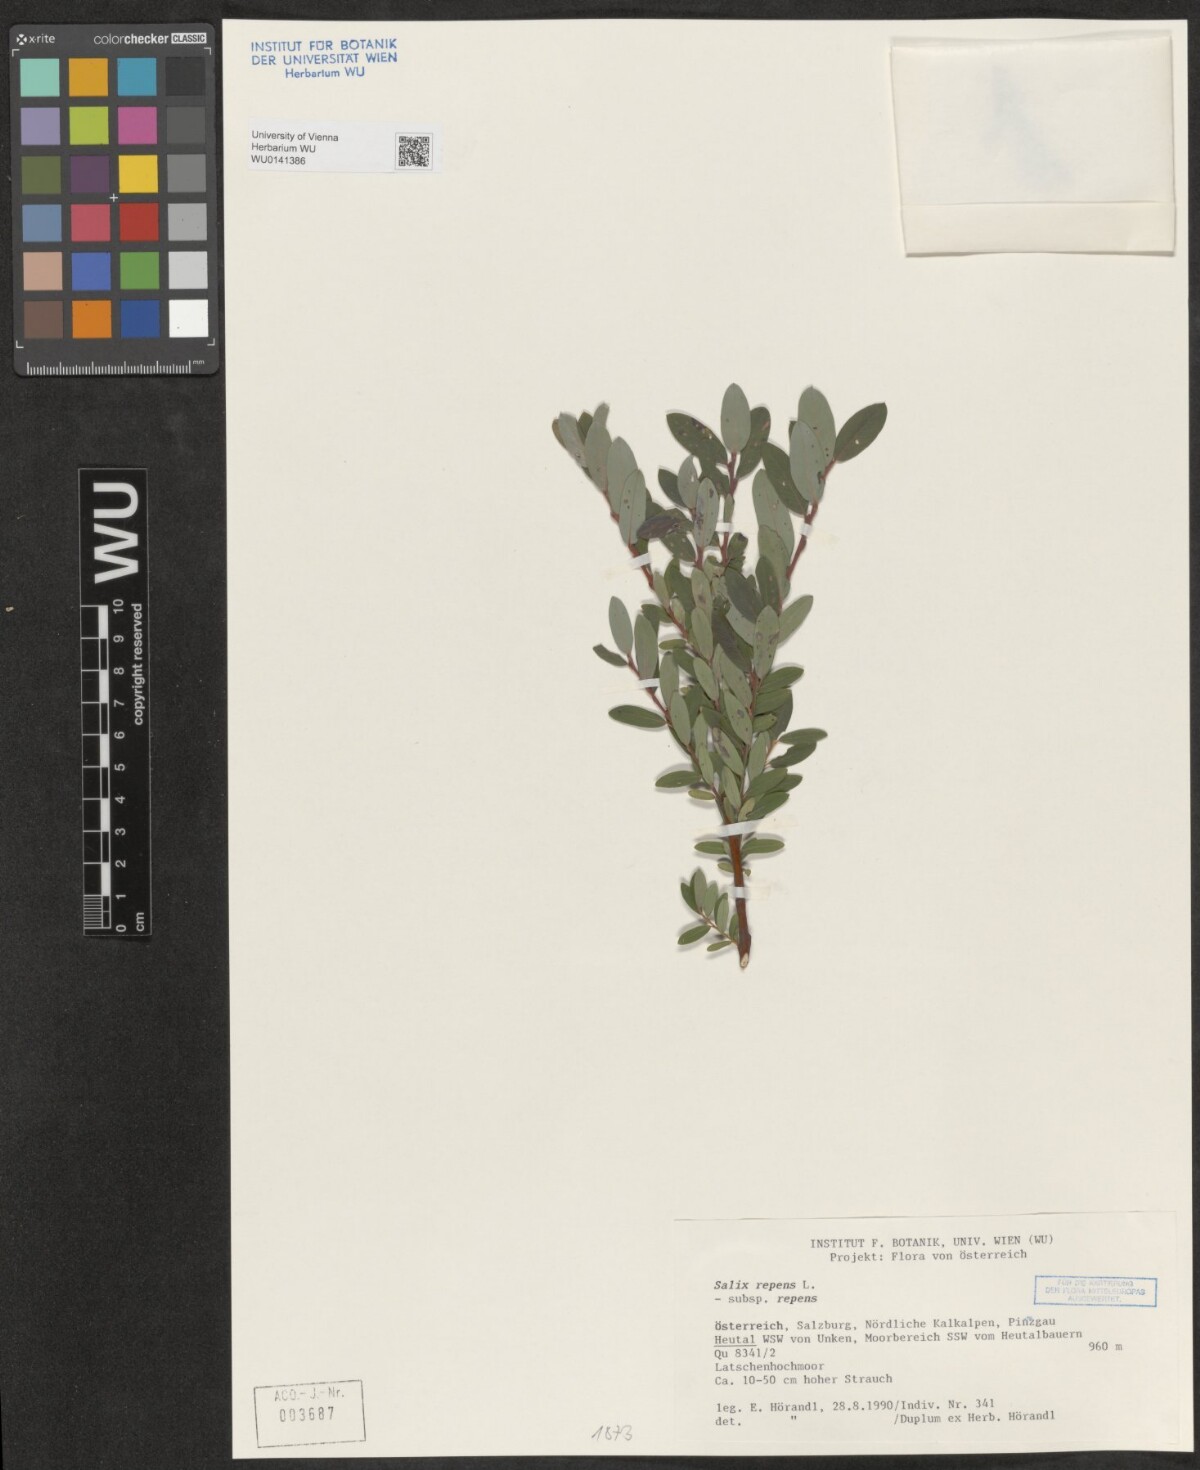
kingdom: Plantae
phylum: Tracheophyta
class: Magnoliopsida
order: Malpighiales
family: Salicaceae
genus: Salix
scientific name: Salix repens
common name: Creeping willow
